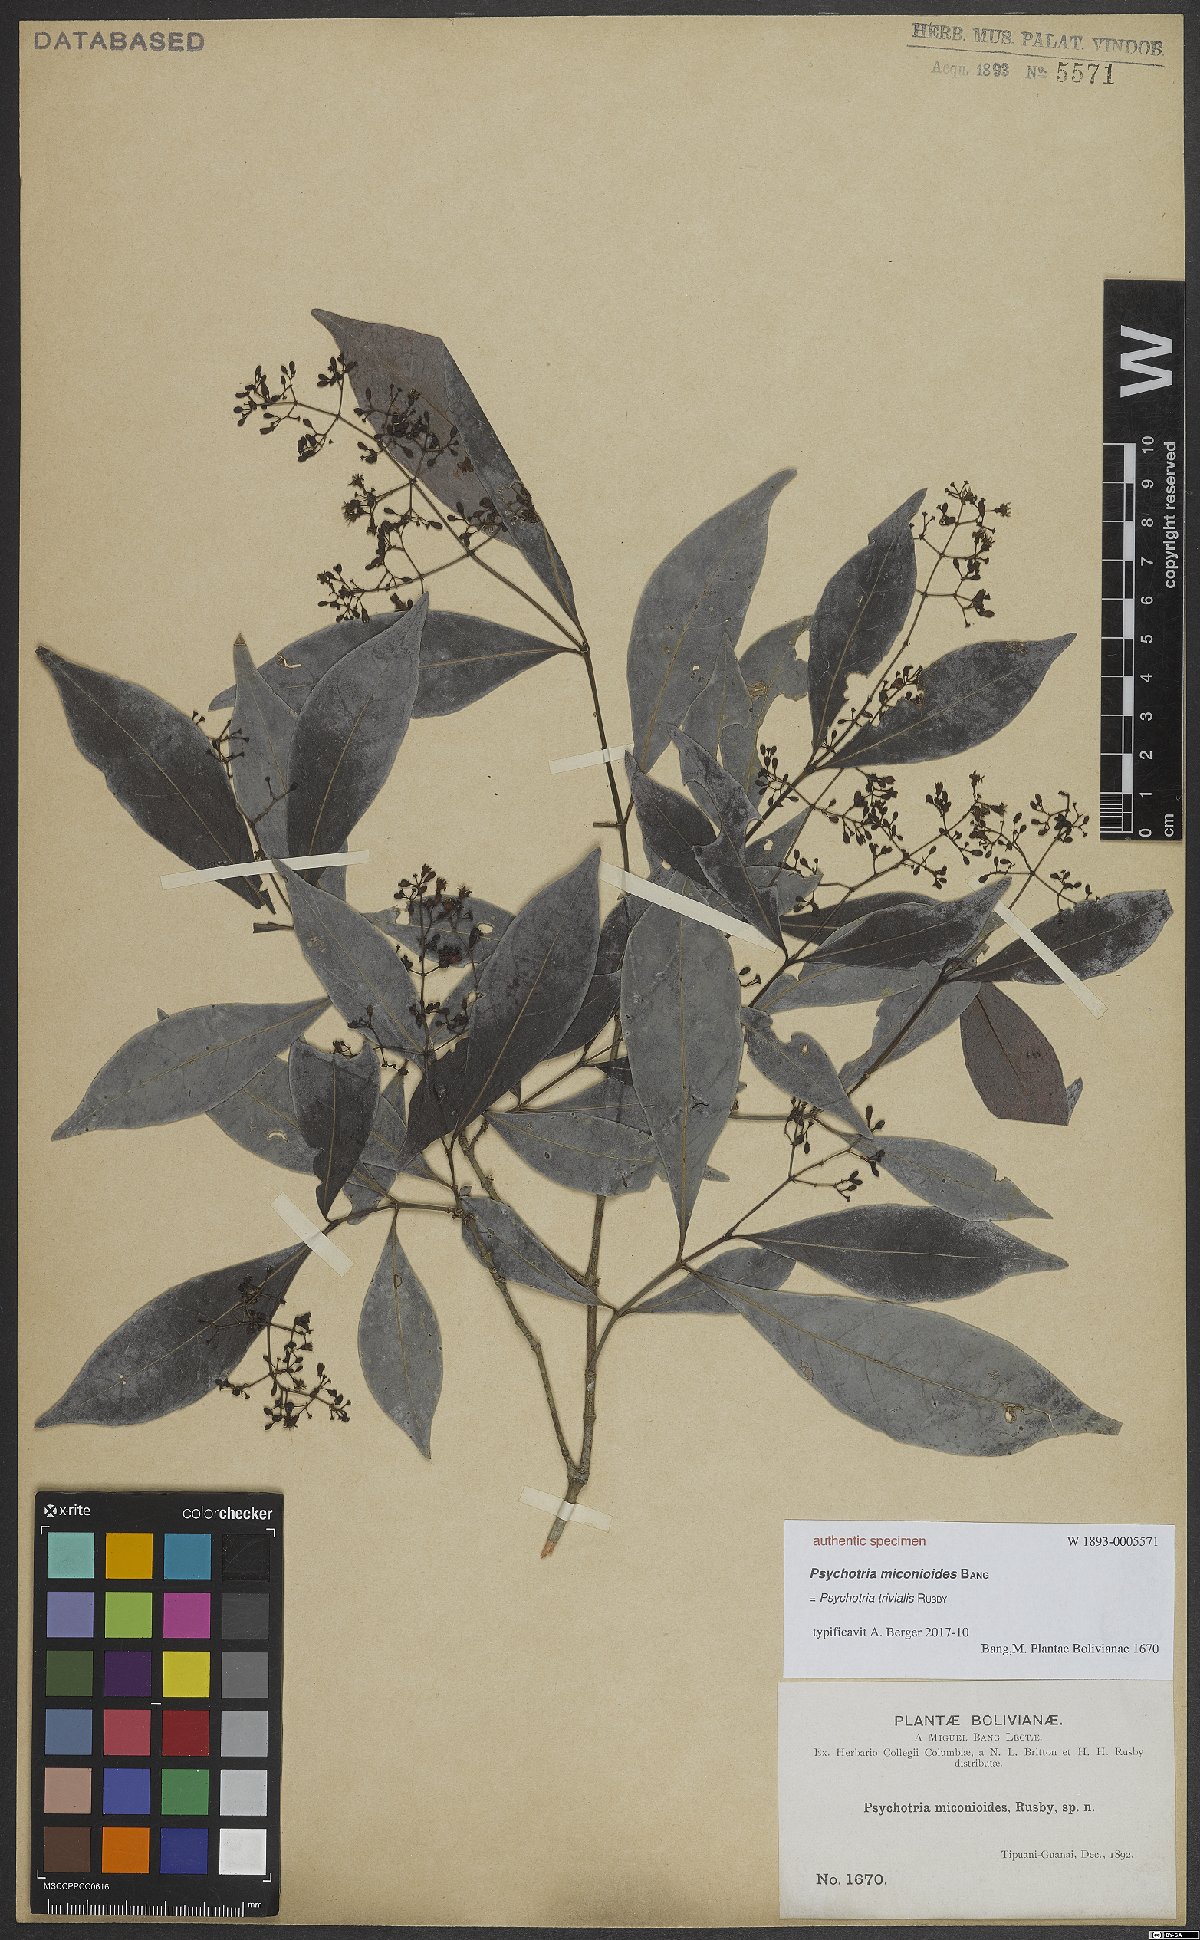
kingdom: Plantae
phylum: Tracheophyta
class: Magnoliopsida
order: Gentianales
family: Rubiaceae
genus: Psychotria
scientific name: Psychotria trivialis
